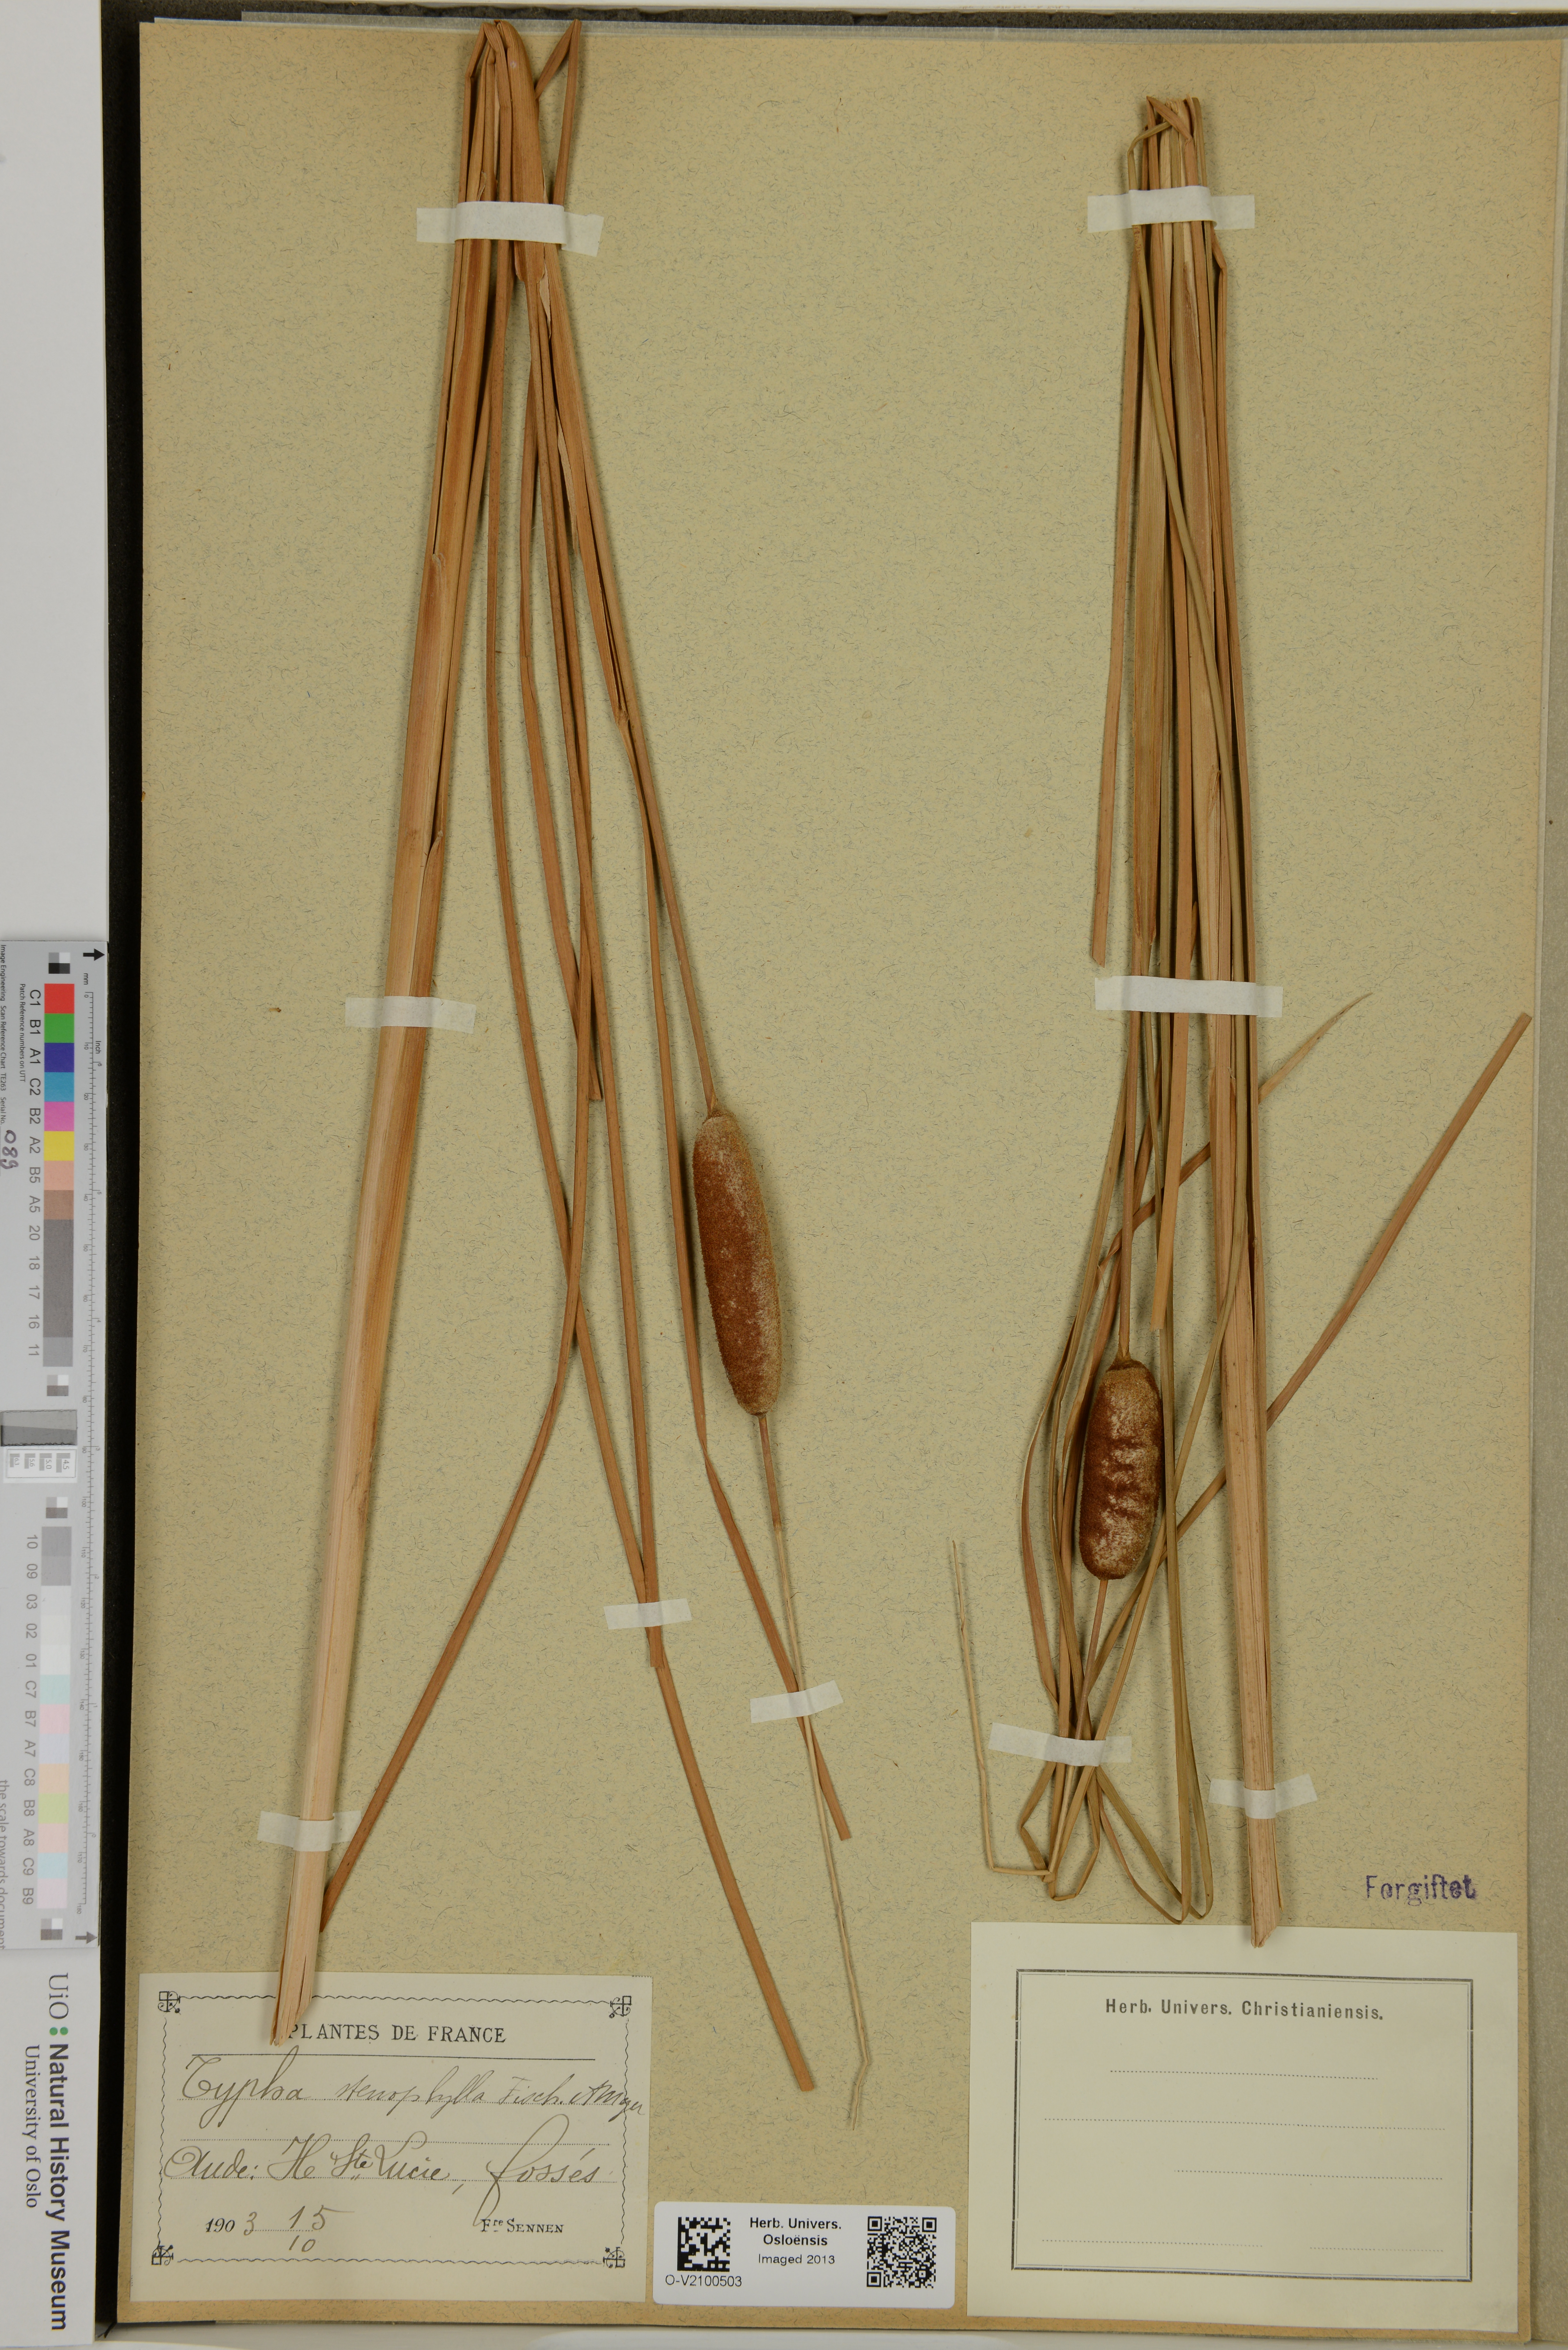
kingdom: Plantae
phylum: Tracheophyta
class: Liliopsida
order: Poales
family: Typhaceae
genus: Typha
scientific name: Typha
